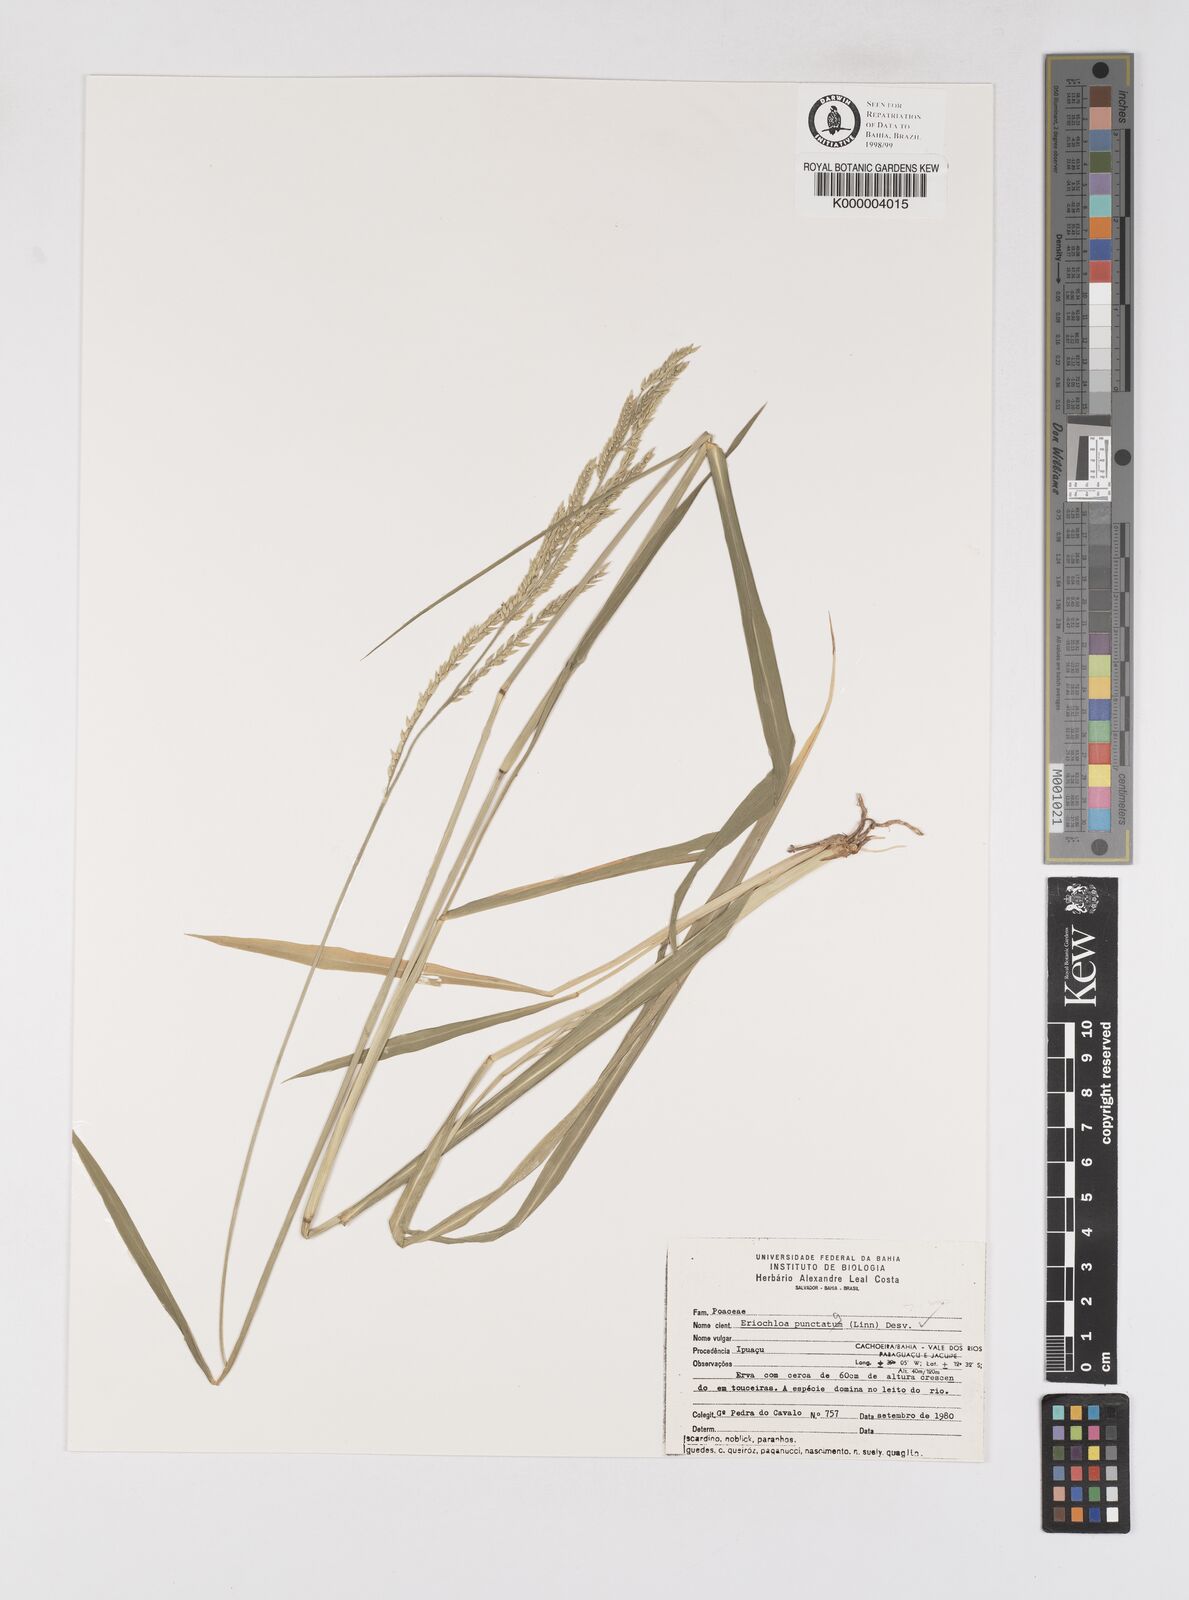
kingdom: Plantae
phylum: Tracheophyta
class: Liliopsida
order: Poales
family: Poaceae
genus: Eriochloa
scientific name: Eriochloa
